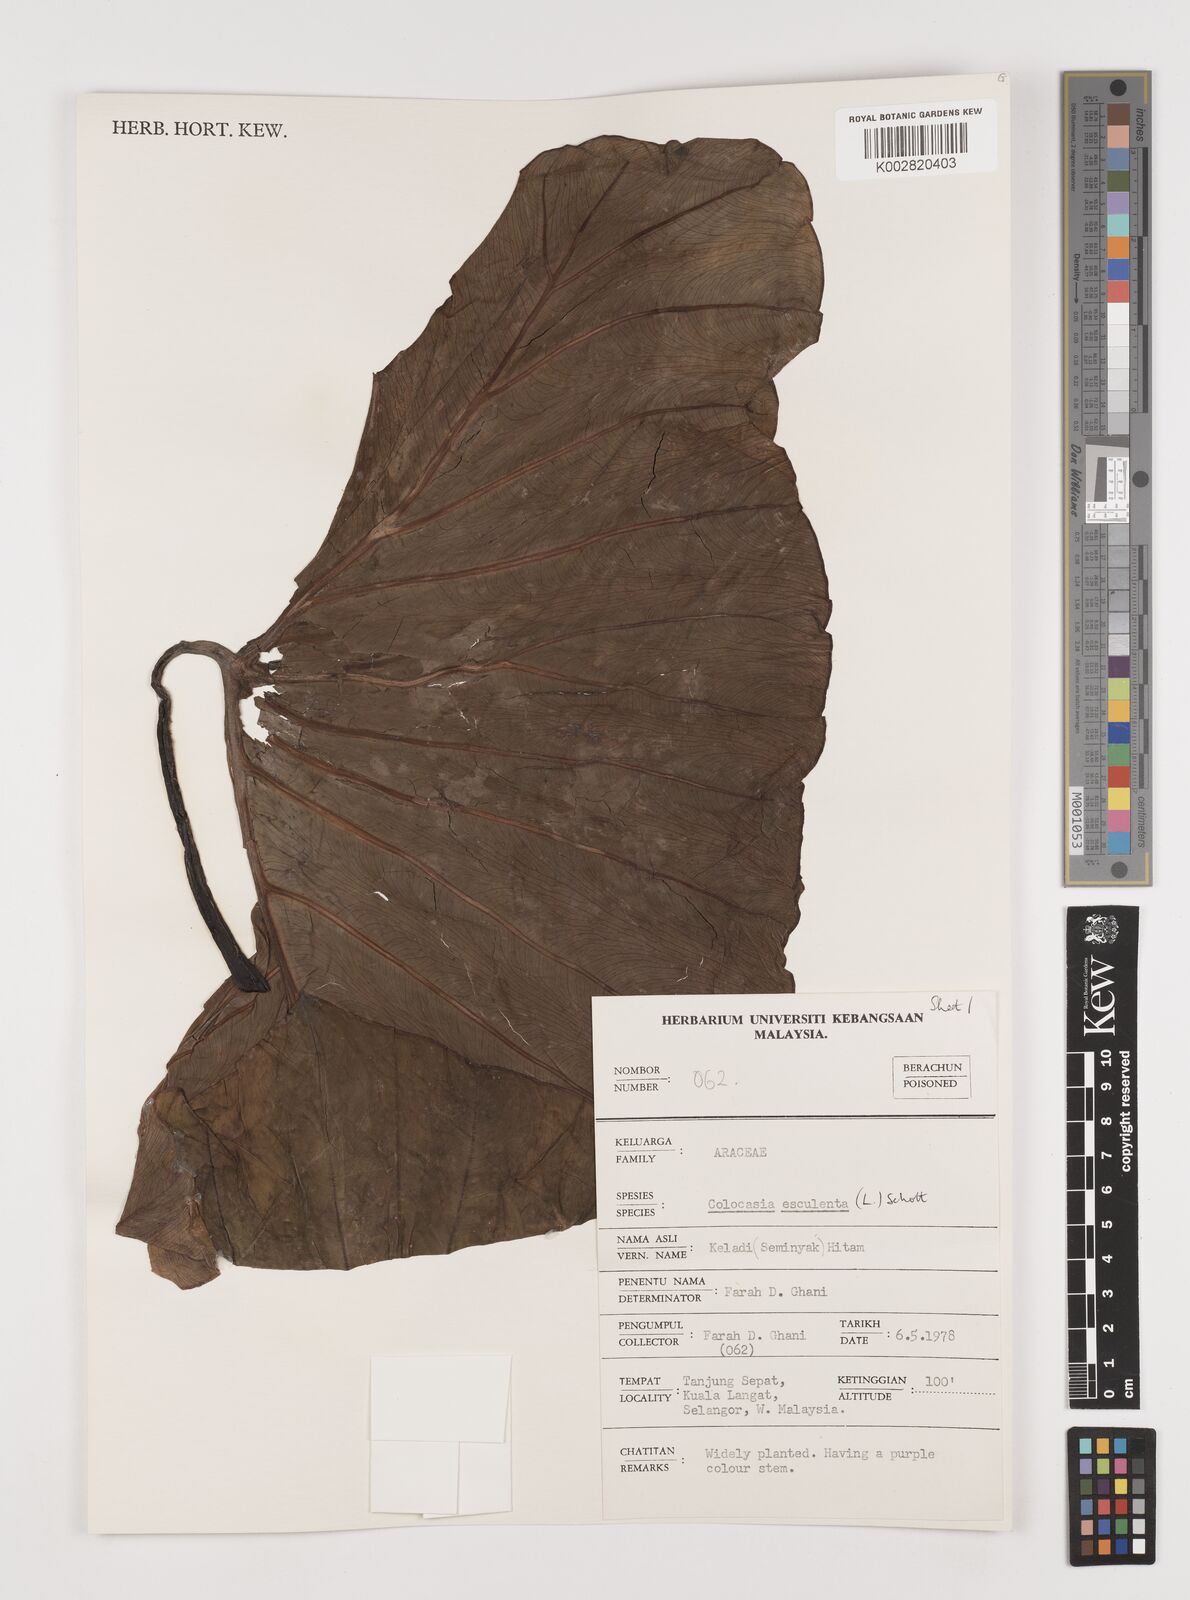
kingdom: Plantae
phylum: Tracheophyta
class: Liliopsida
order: Alismatales
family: Araceae
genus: Colocasia
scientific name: Colocasia esculenta
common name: Taro
